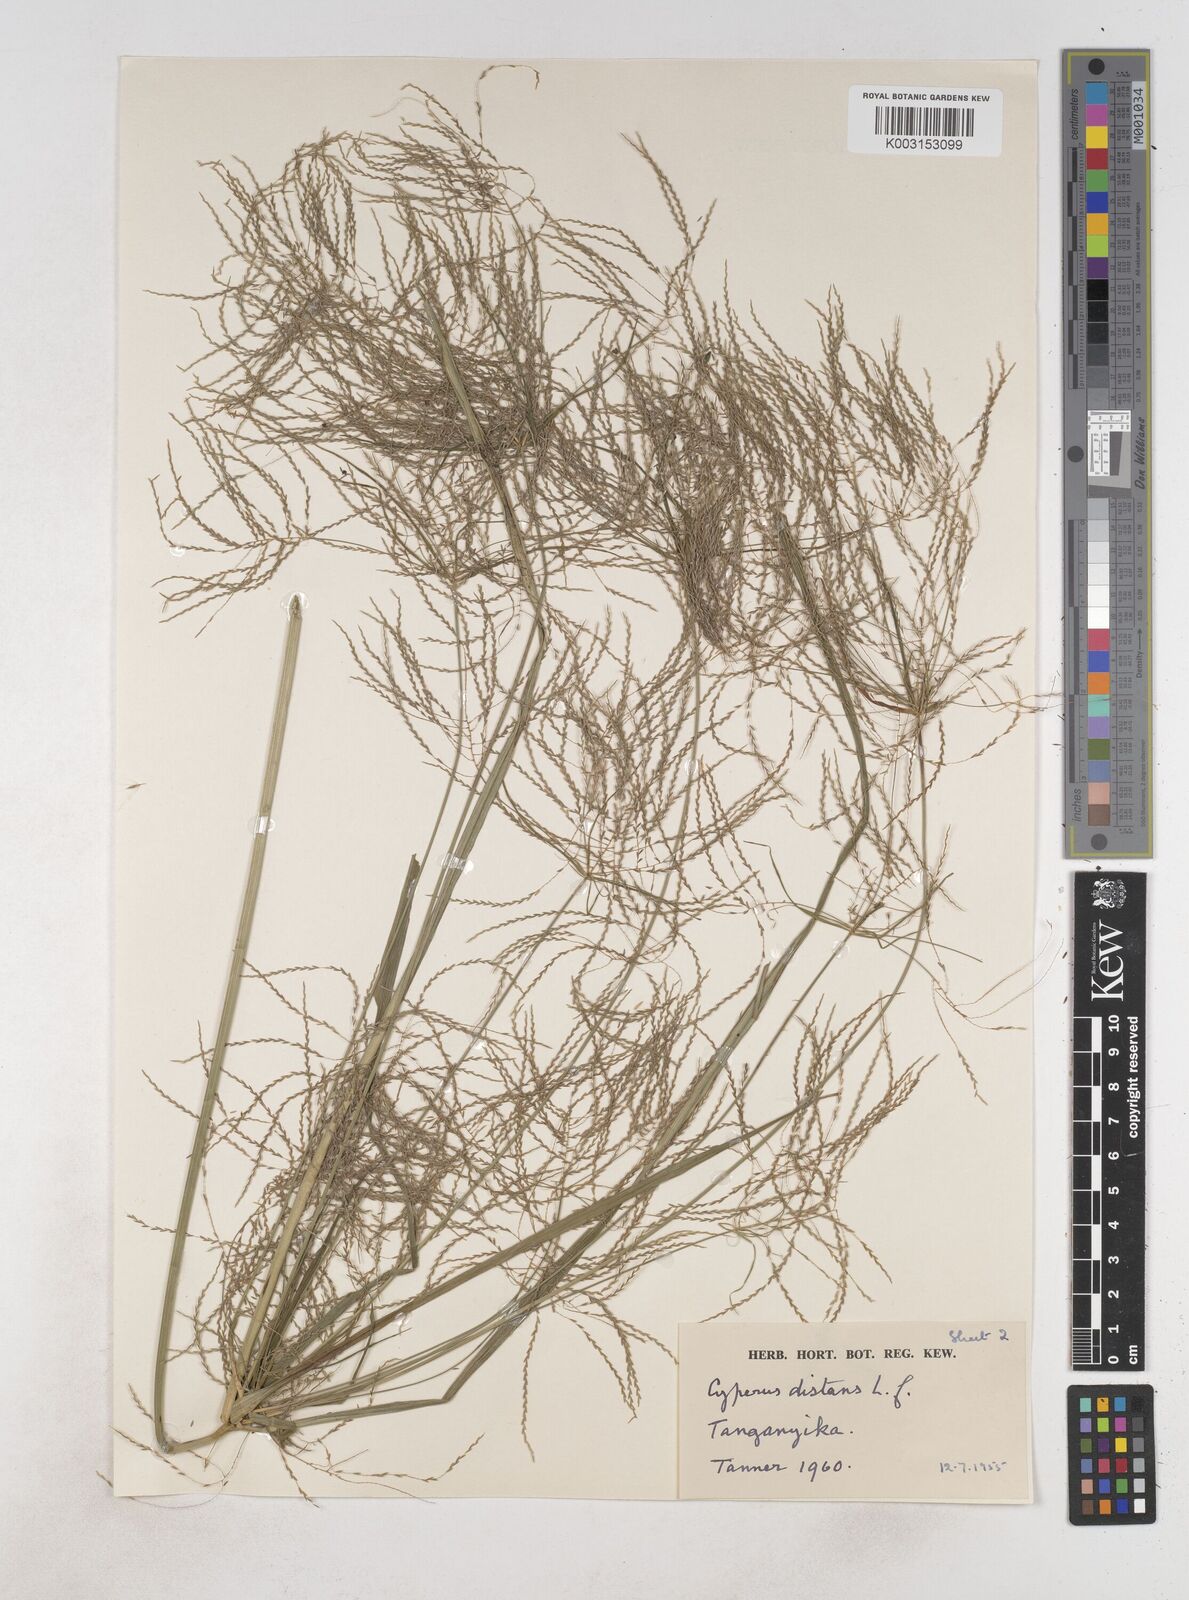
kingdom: Plantae
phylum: Tracheophyta
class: Liliopsida
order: Poales
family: Cyperaceae
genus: Cyperus
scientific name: Cyperus distans
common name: Slender cyperus
